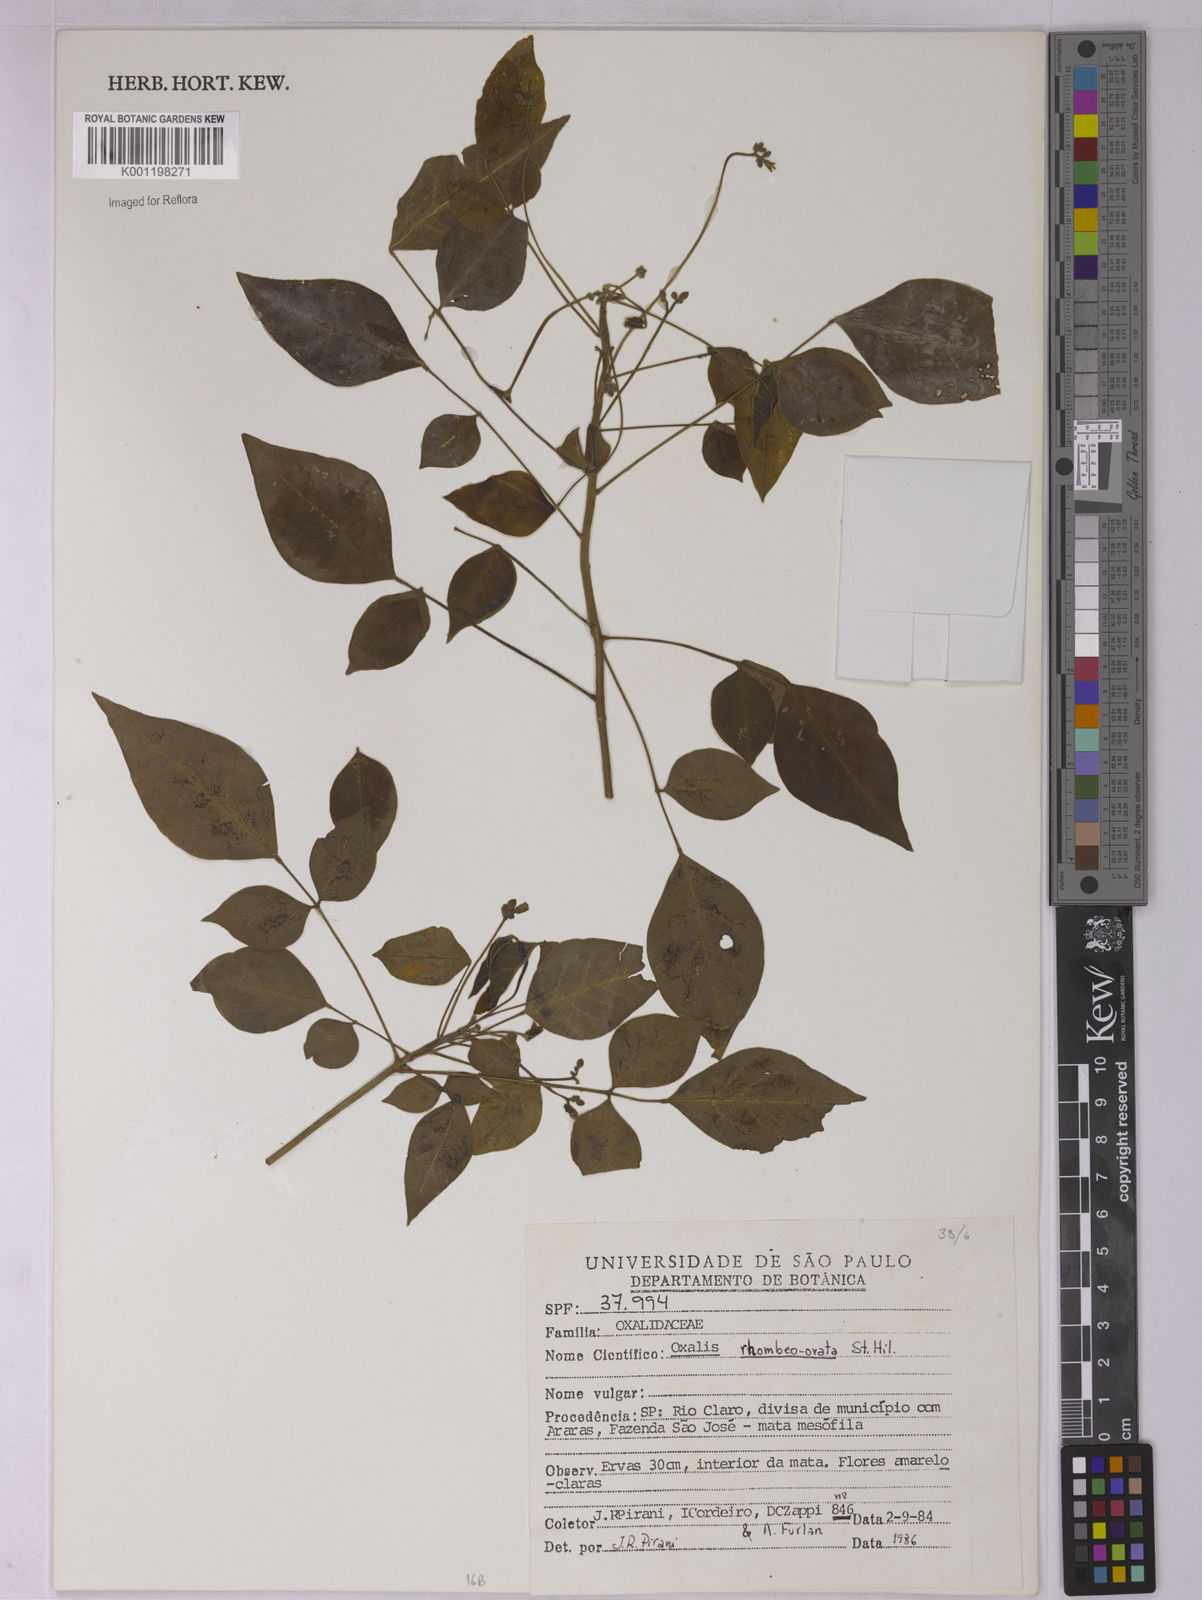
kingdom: Plantae
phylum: Tracheophyta
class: Magnoliopsida
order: Oxalidales
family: Oxalidaceae
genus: Oxalis
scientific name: Oxalis rhombeo-ovata
